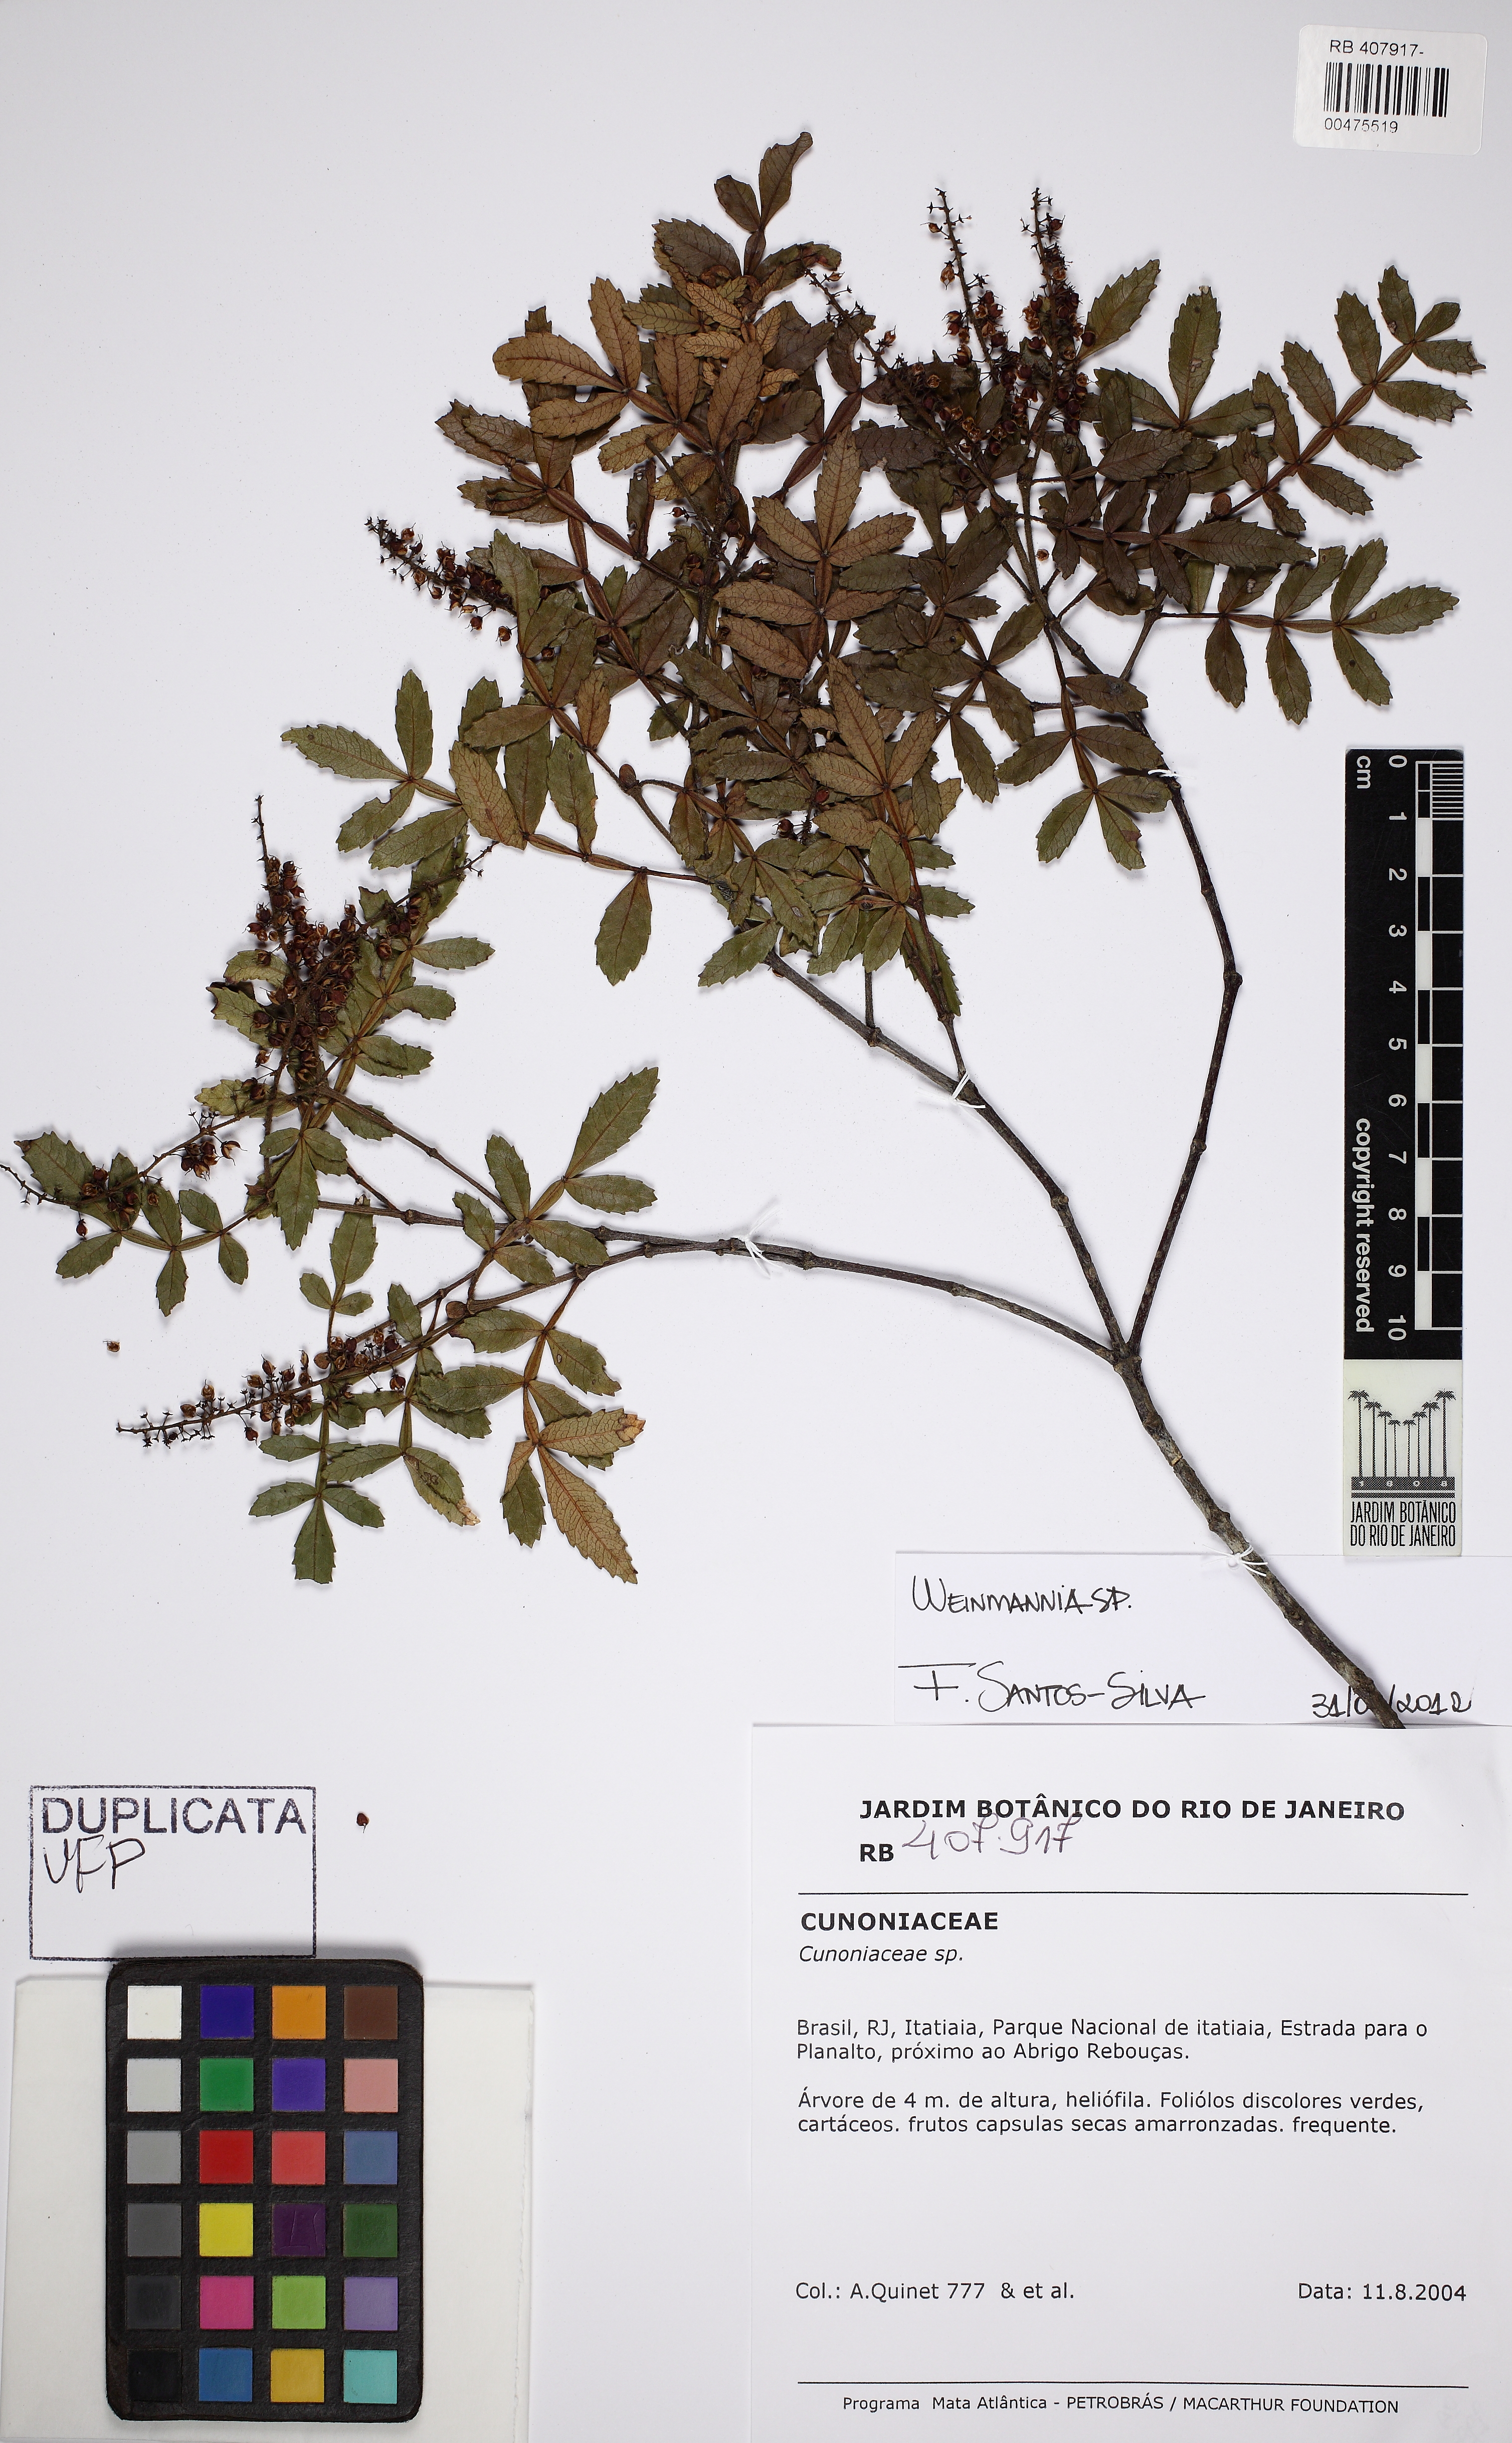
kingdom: Plantae
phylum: Tracheophyta
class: Magnoliopsida
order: Oxalidales
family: Cunoniaceae
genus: Weinmannia
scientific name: Weinmannia
